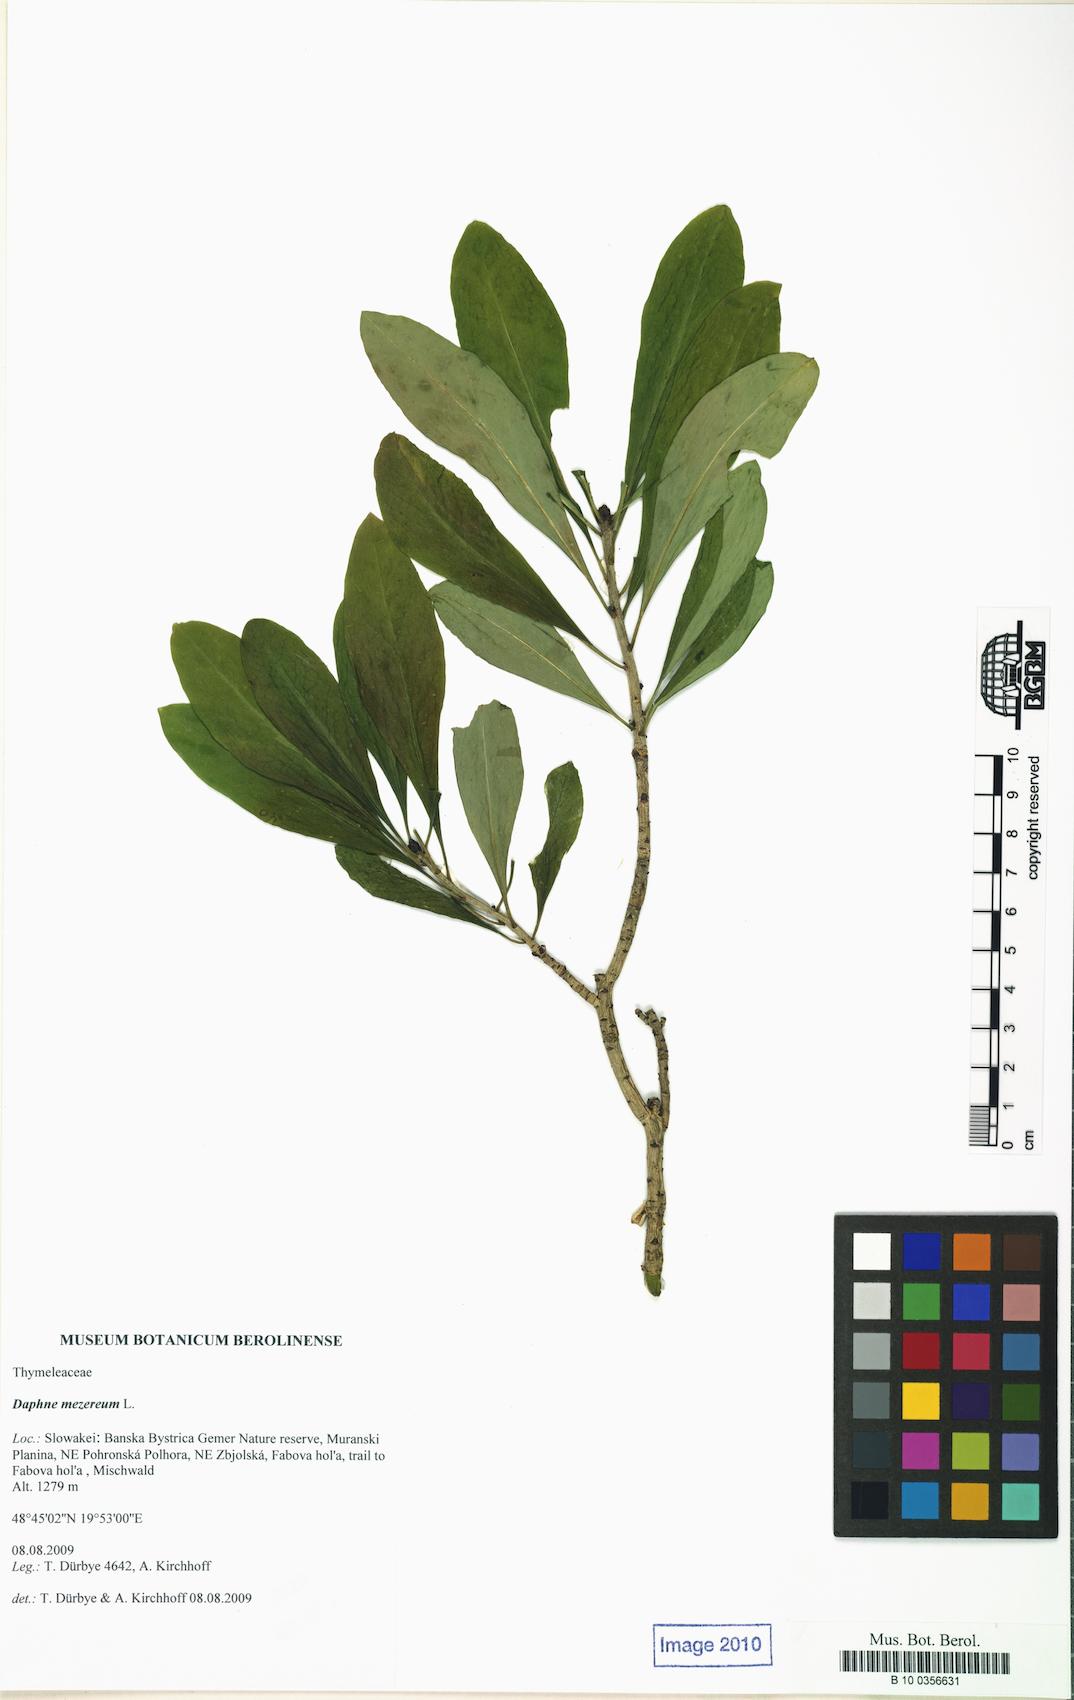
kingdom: Plantae
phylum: Tracheophyta
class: Magnoliopsida
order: Malvales
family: Thymelaeaceae
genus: Daphne
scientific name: Daphne mezereum
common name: Mezereon
